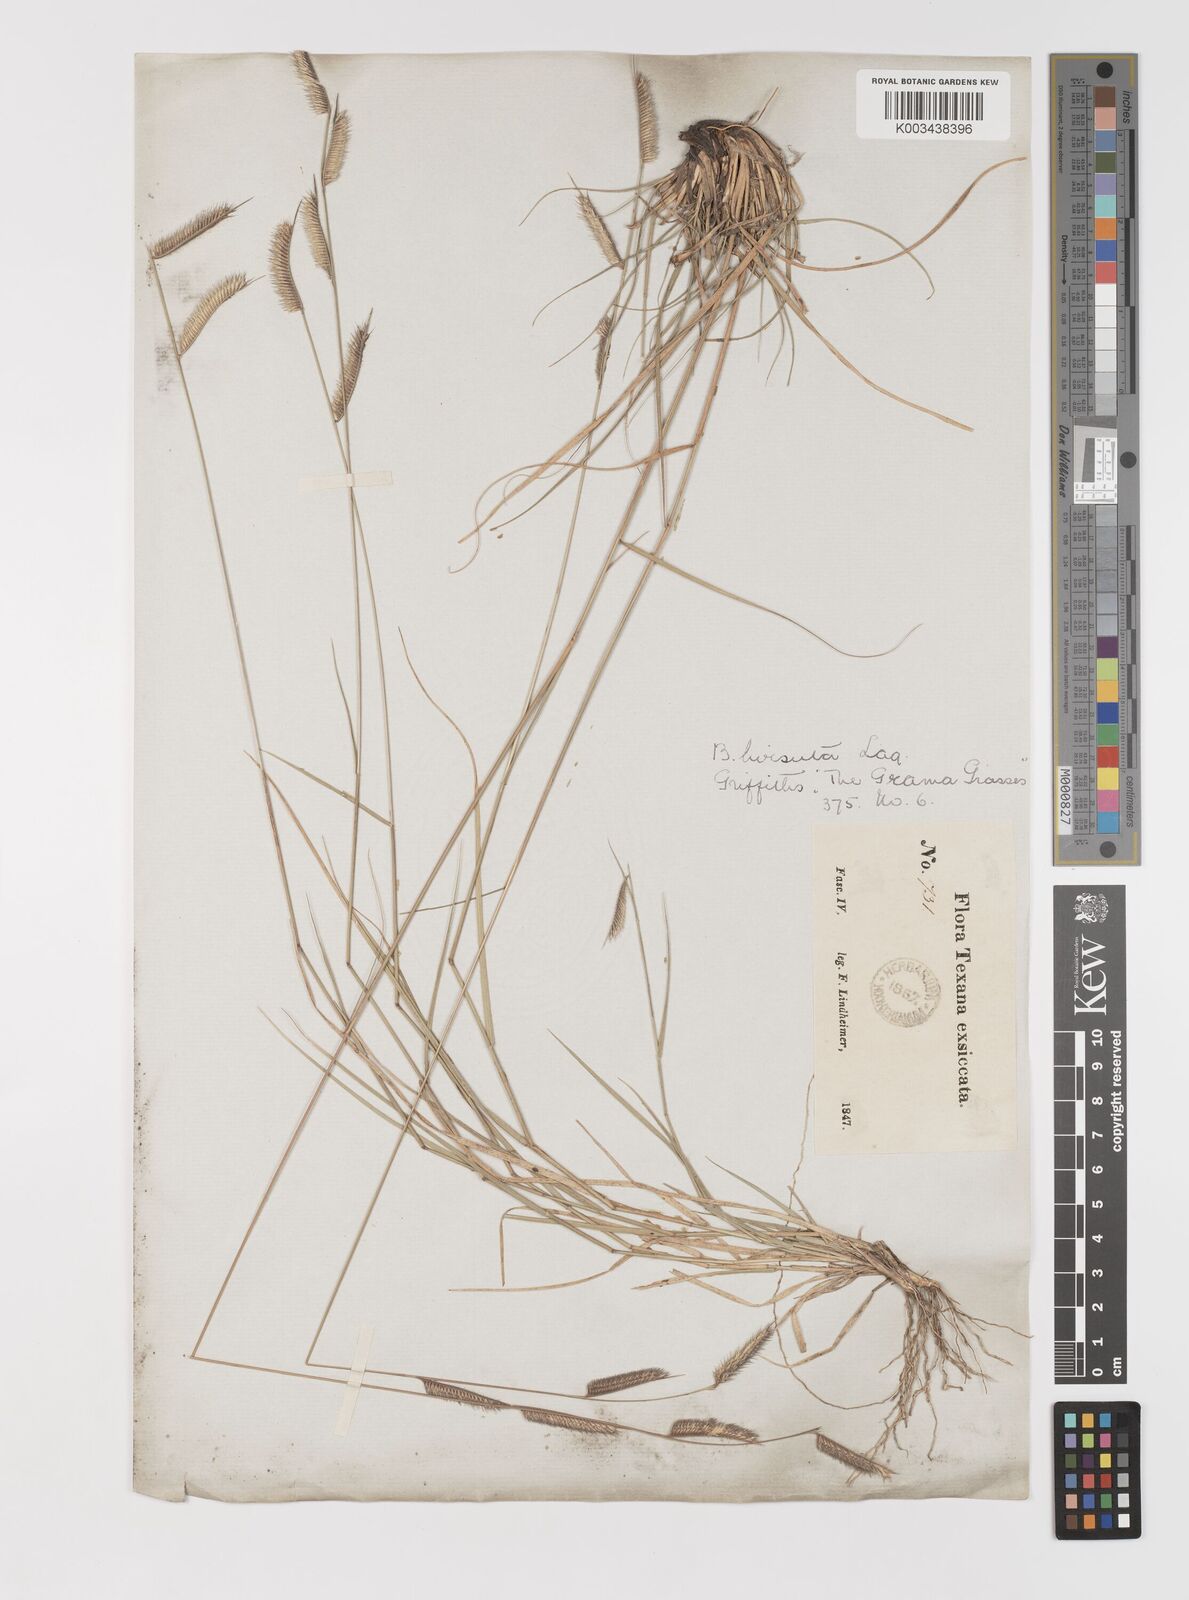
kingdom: Plantae
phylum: Tracheophyta
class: Liliopsida
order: Poales
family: Poaceae
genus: Bouteloua
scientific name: Bouteloua hirsuta
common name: Hairy grama
